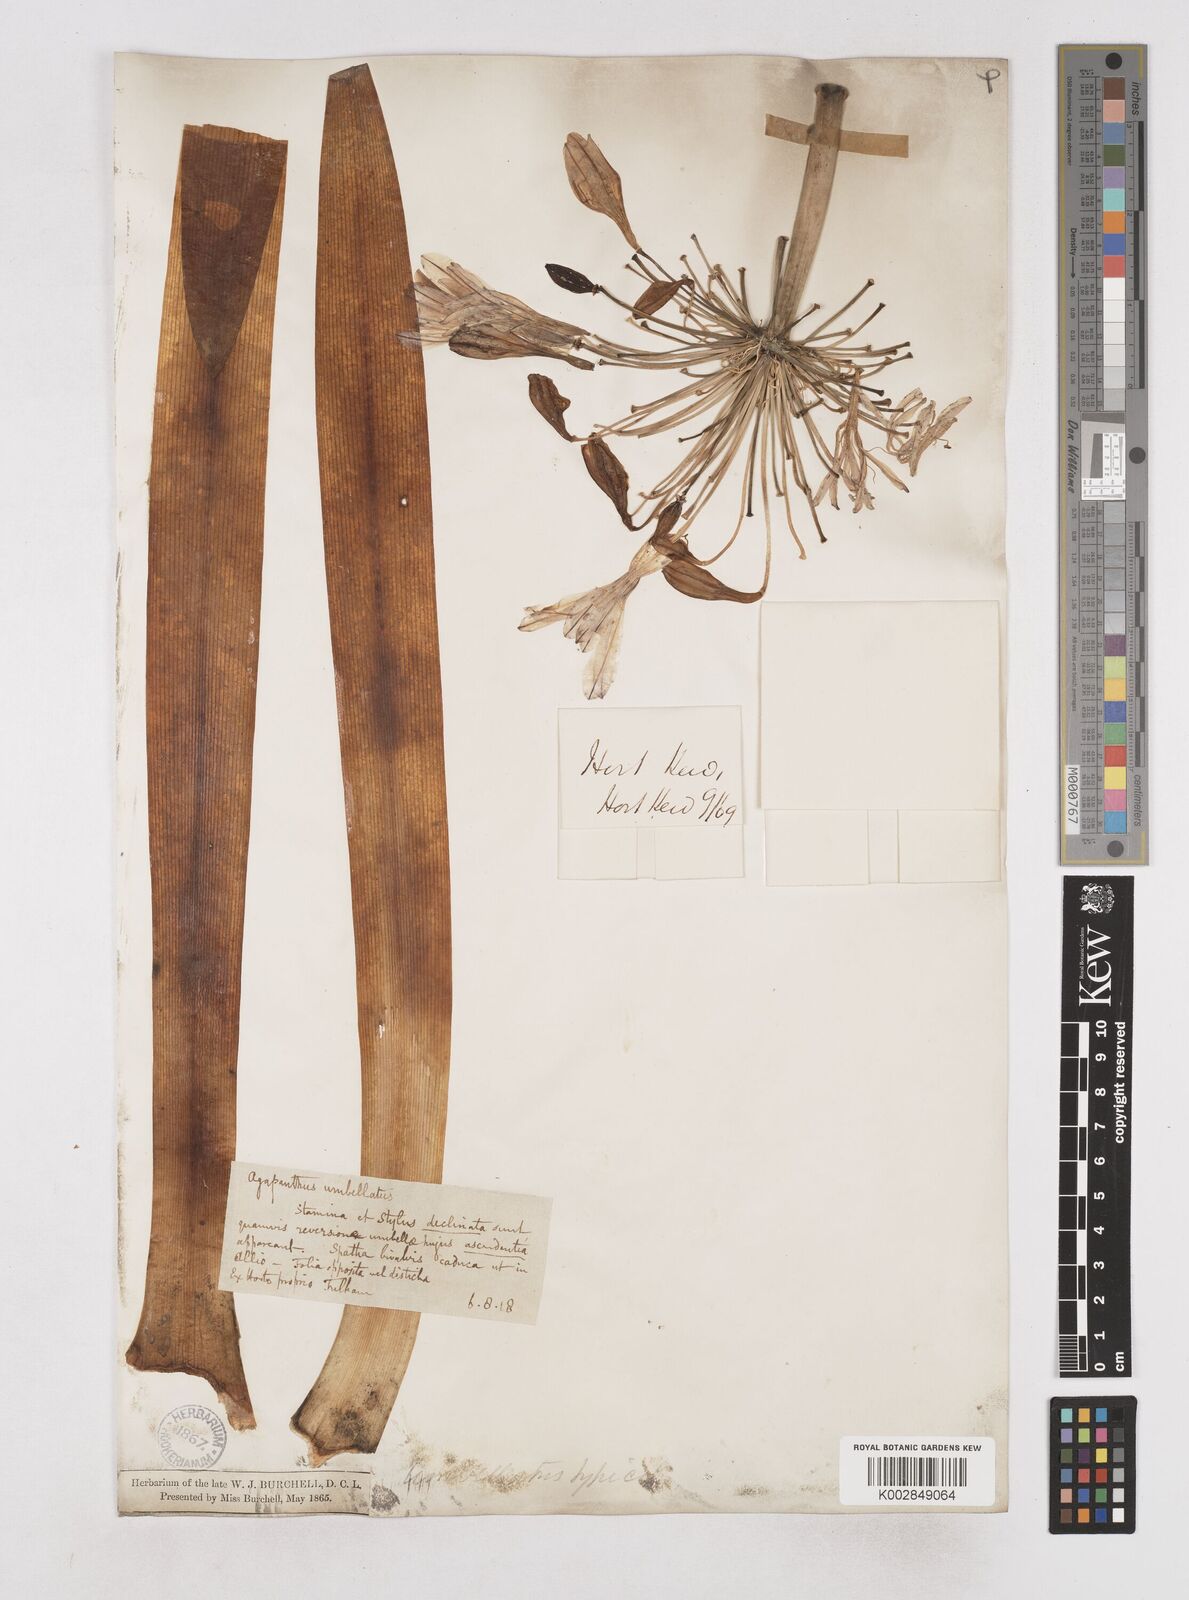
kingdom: Plantae
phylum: Tracheophyta
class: Liliopsida
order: Asparagales
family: Amaryllidaceae
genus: Agapanthus
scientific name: Agapanthus praecox
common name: African-lily
